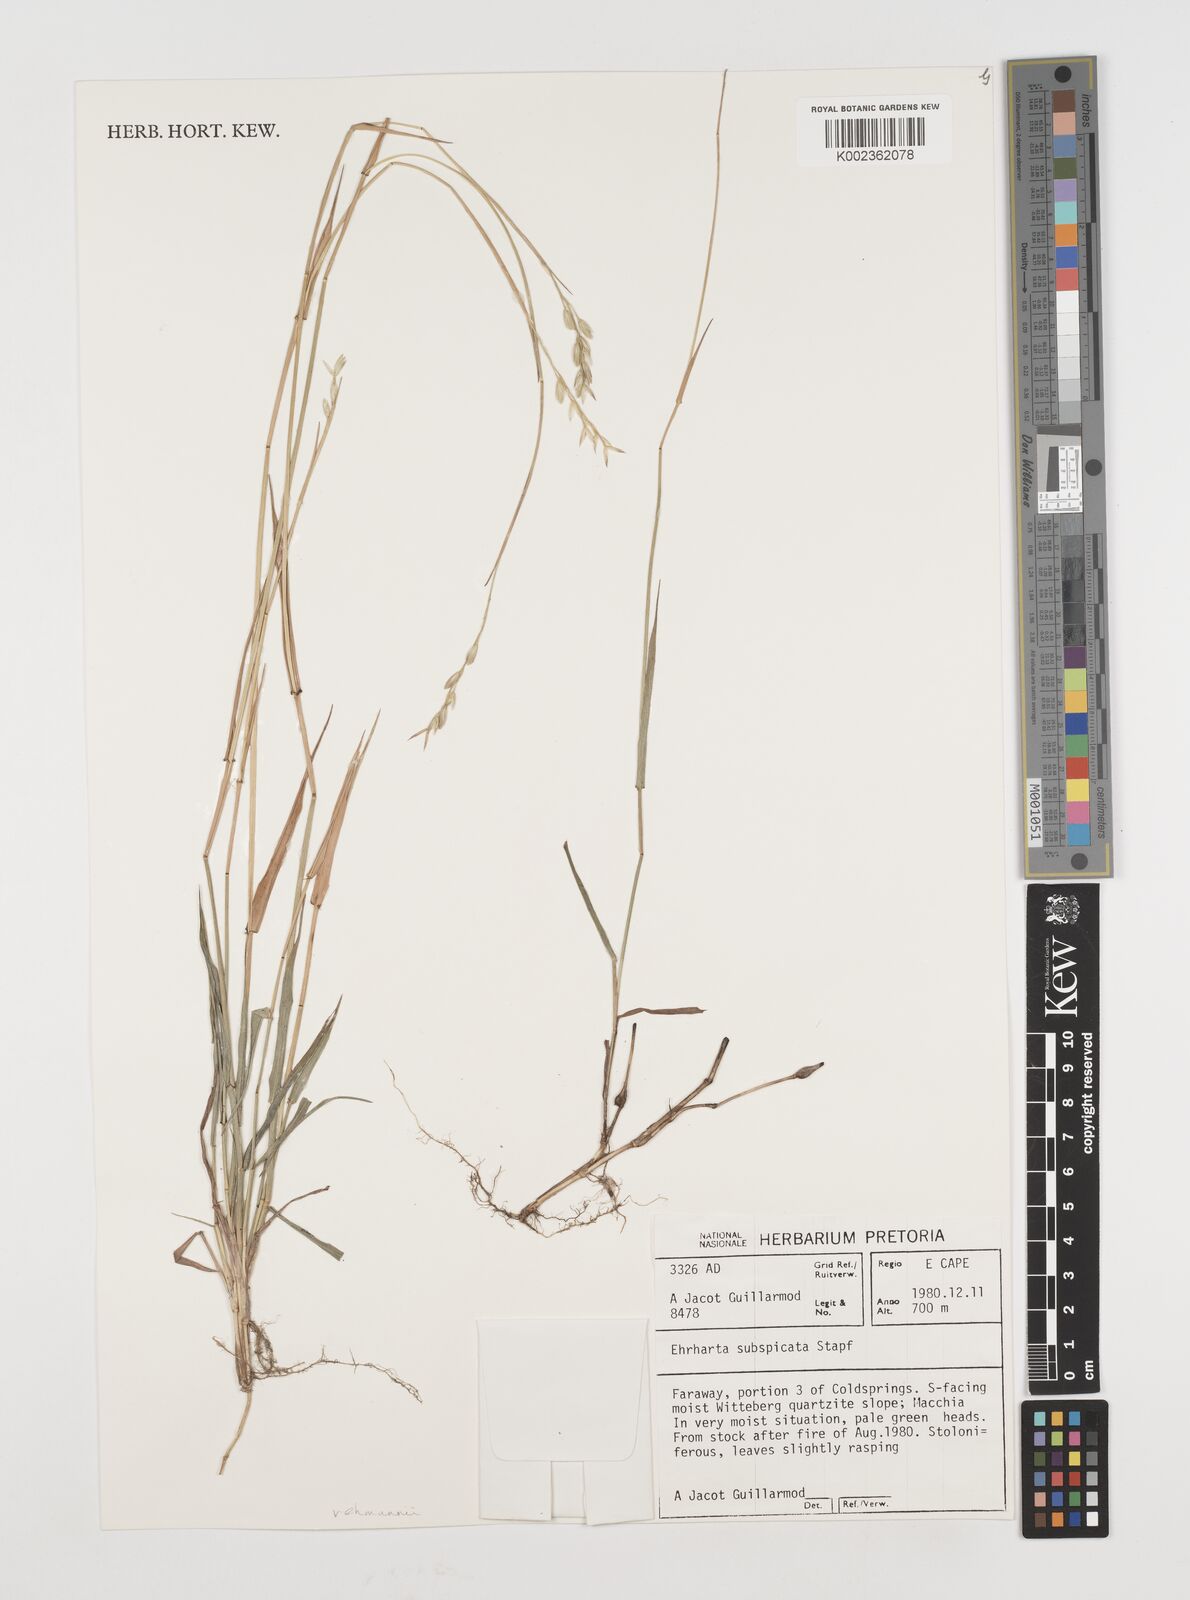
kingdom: Plantae
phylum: Tracheophyta
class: Liliopsida
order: Poales
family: Poaceae
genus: Ehrharta
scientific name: Ehrharta rehmannii
